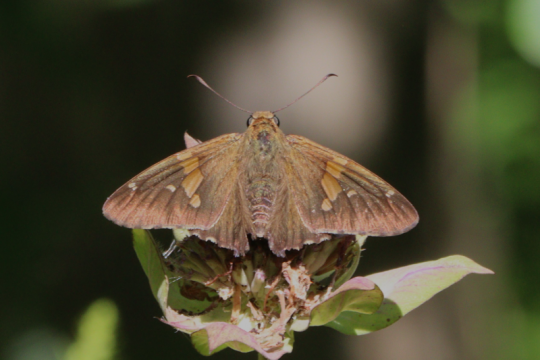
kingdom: Animalia
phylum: Arthropoda
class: Insecta
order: Lepidoptera
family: Hesperiidae
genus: Epargyreus
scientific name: Epargyreus clarus
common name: Silver-spotted Skipper
